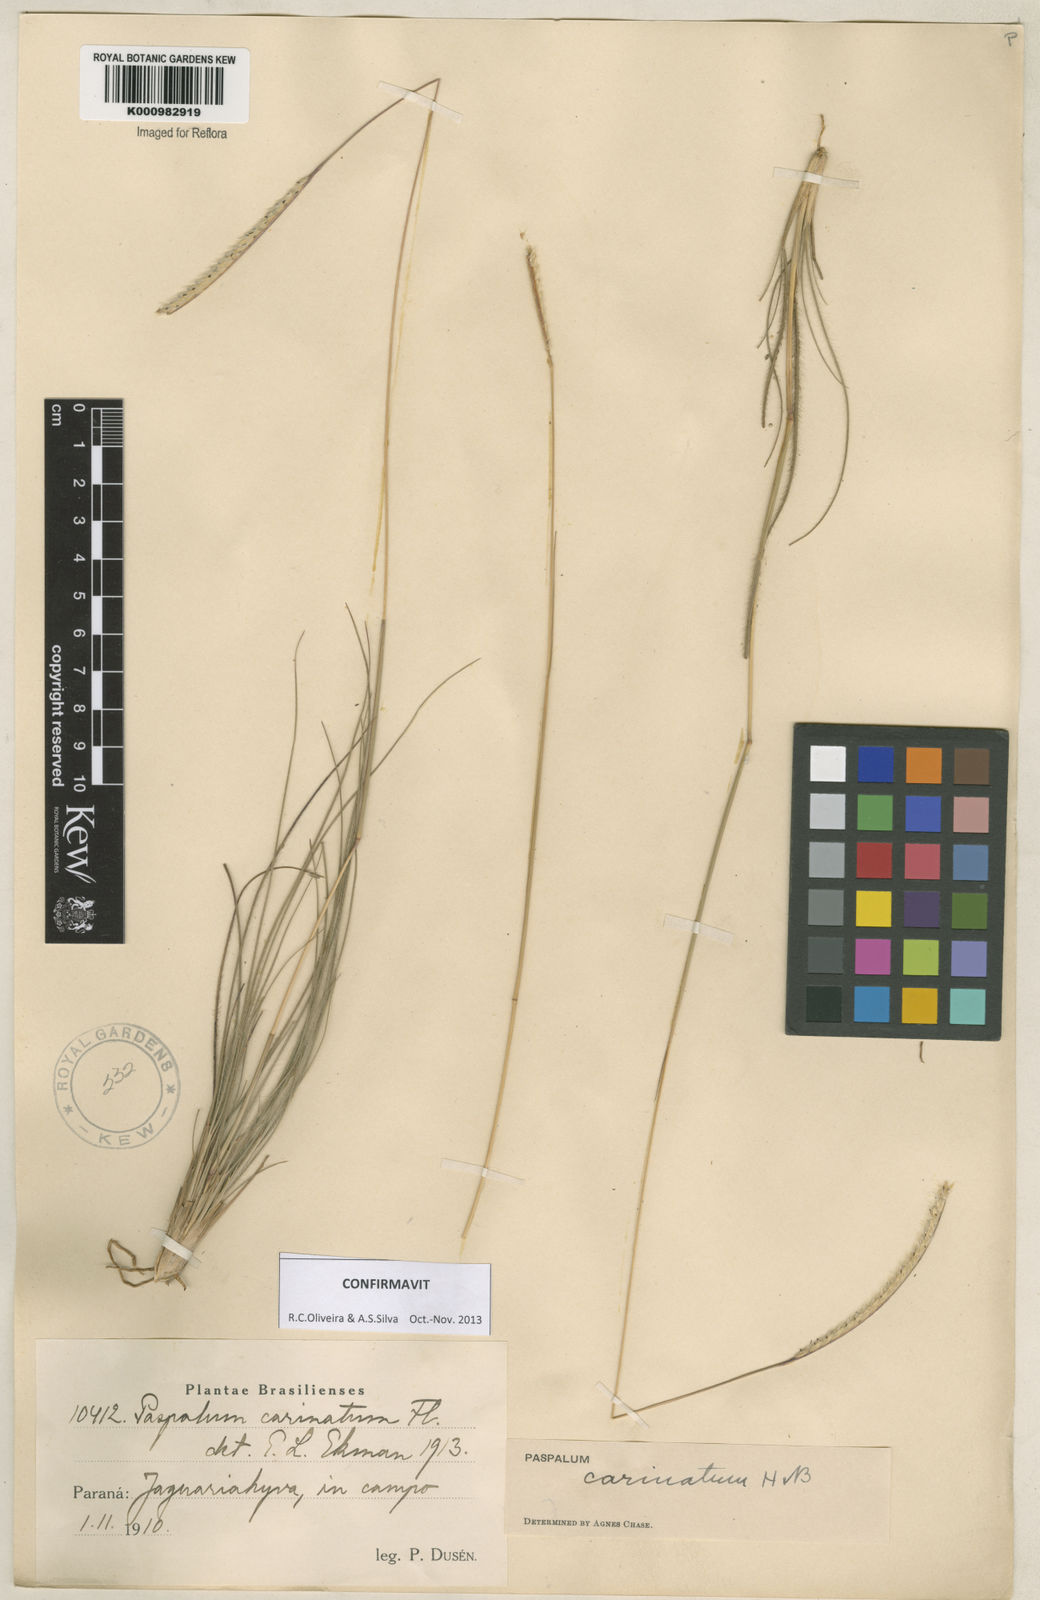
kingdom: Plantae
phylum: Tracheophyta
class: Liliopsida
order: Poales
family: Poaceae
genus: Paspalum
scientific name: Paspalum
